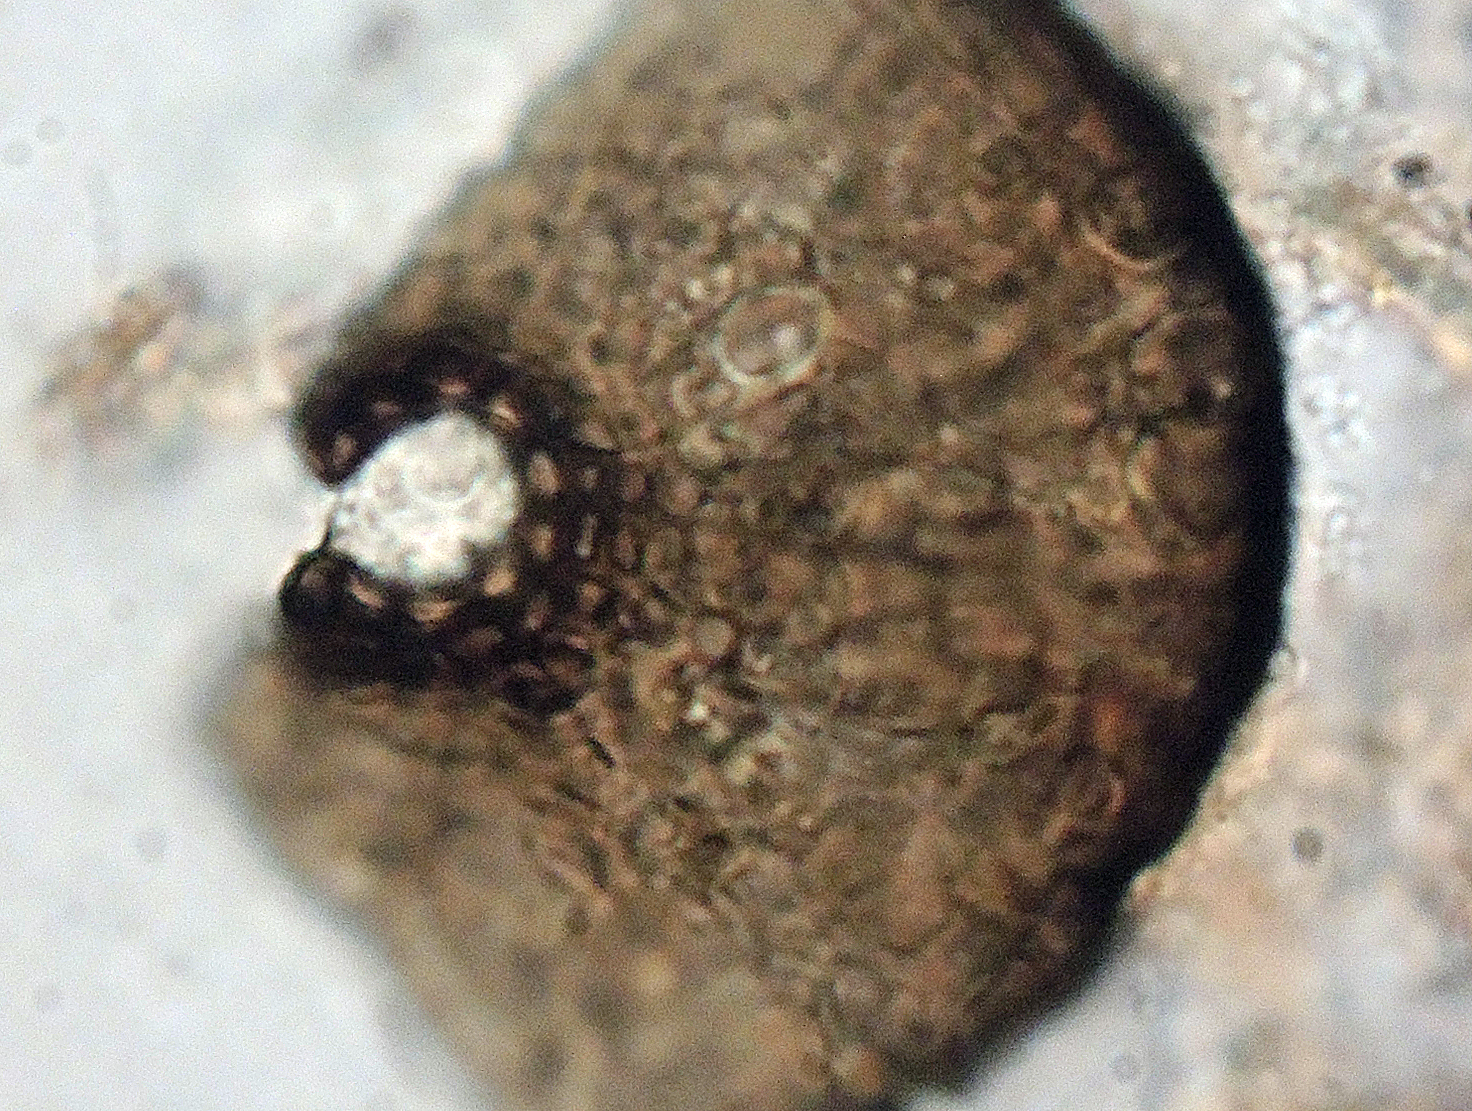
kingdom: Fungi
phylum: Ascomycota
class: Dothideomycetes
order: Microthyriales
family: Microthyriaceae
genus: Lichenopeltella
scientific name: Lichenopeltella pinophylla
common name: fyrrenåle-tykplet
